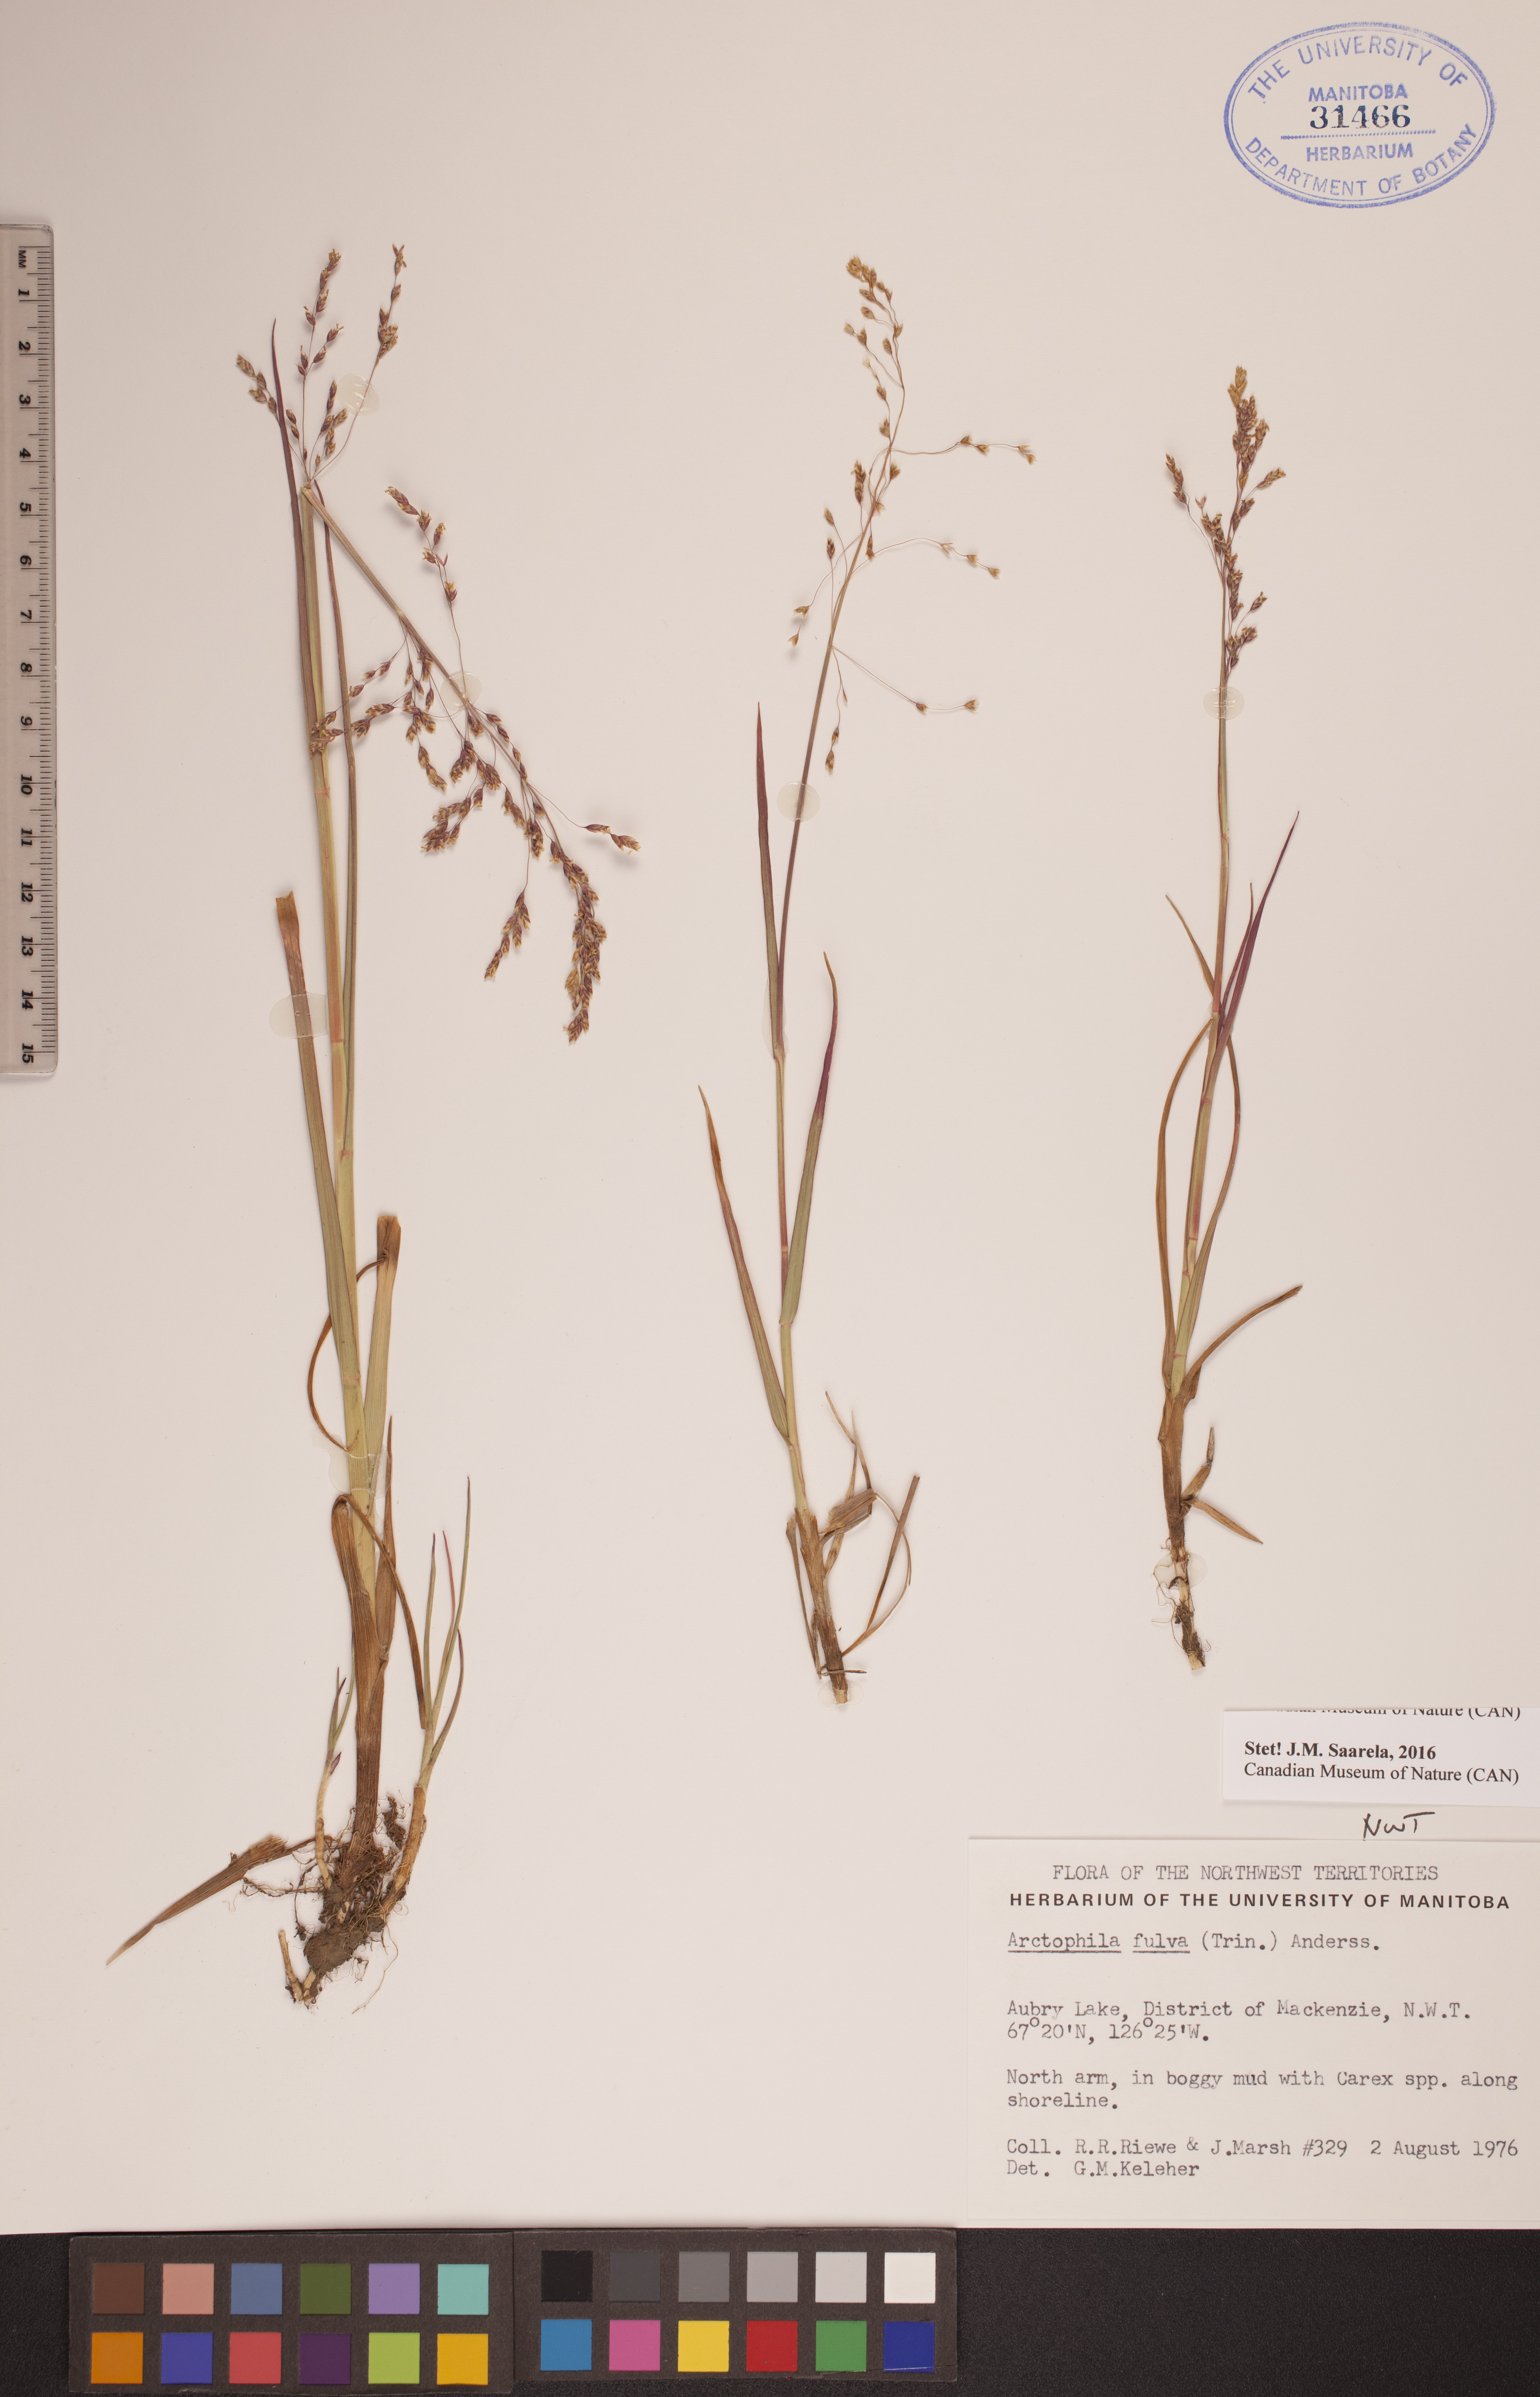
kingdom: Plantae
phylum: Tracheophyta
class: Liliopsida
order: Poales
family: Poaceae
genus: Dupontia
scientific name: Dupontia fulva
